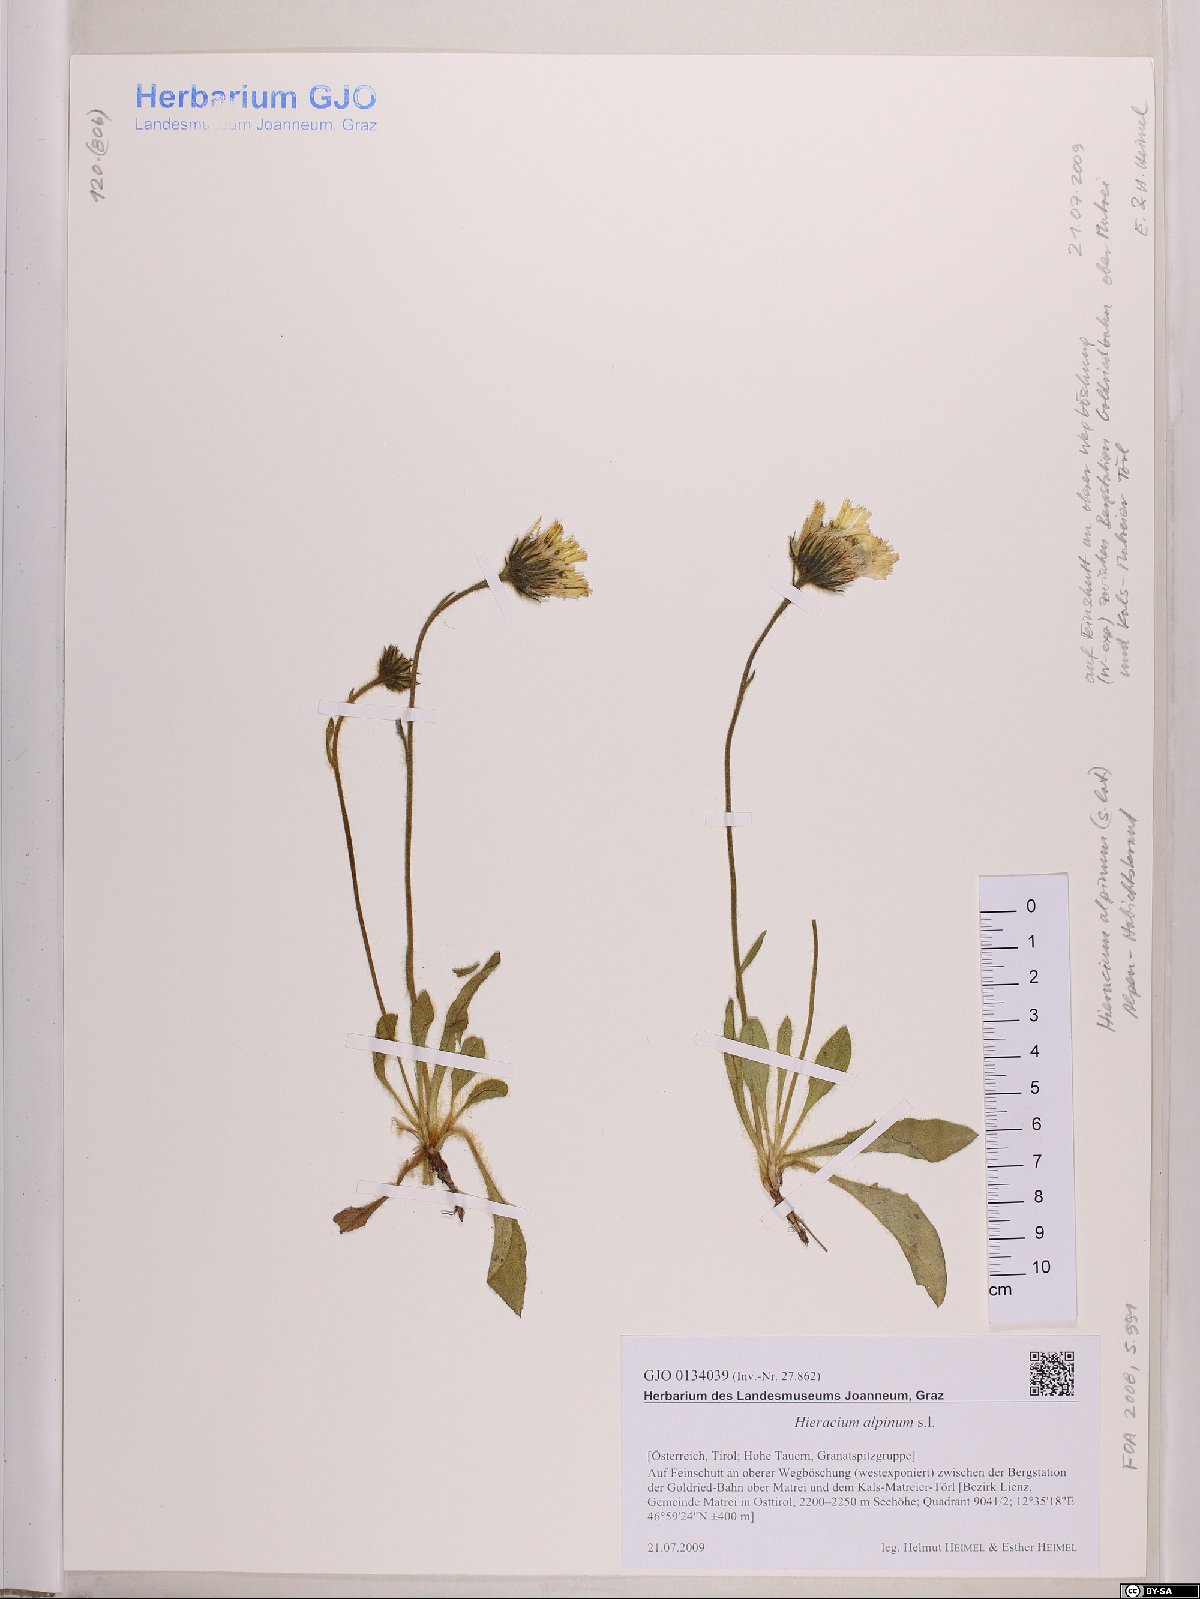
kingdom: Plantae
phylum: Tracheophyta
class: Magnoliopsida
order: Asterales
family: Asteraceae
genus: Hieracium
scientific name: Hieracium alpinum
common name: Alpine hawkweed
